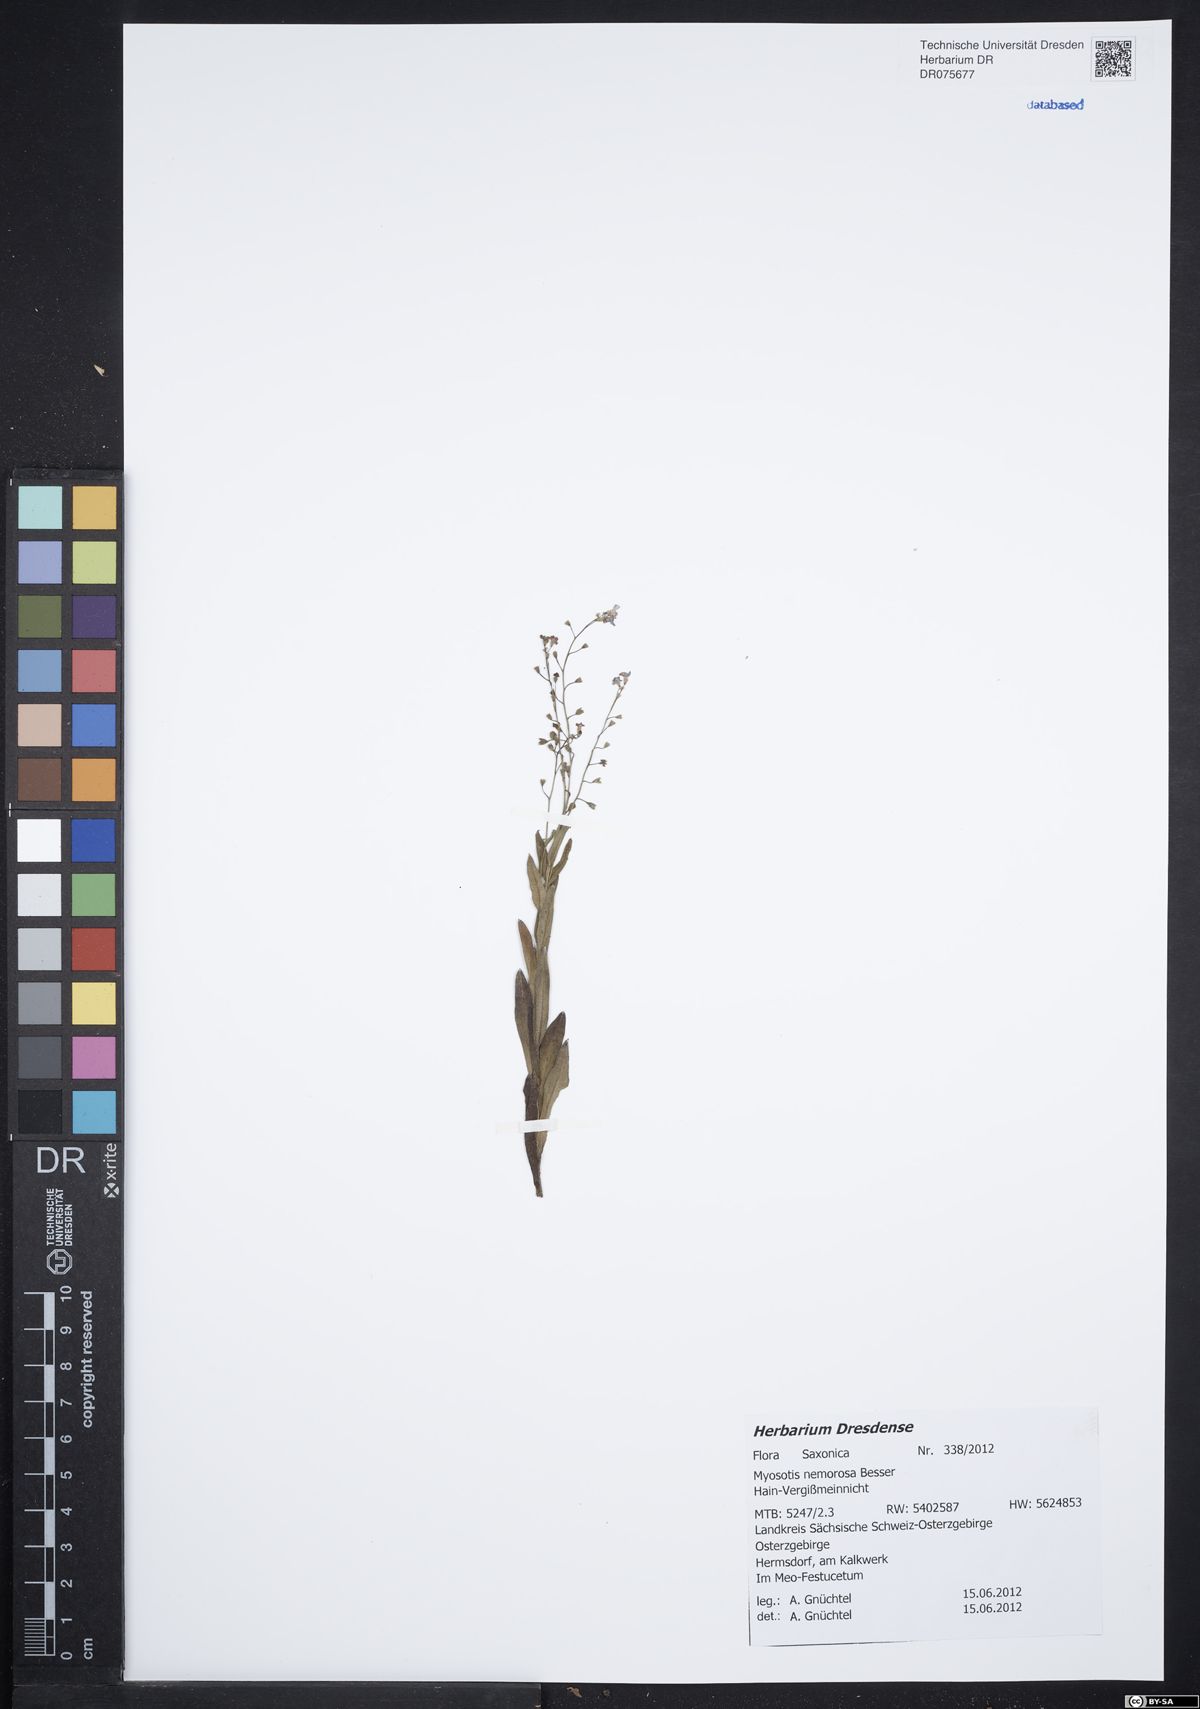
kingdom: Plantae
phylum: Tracheophyta
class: Magnoliopsida
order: Boraginales
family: Boraginaceae
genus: Myosotis
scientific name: Myosotis nemorosa
